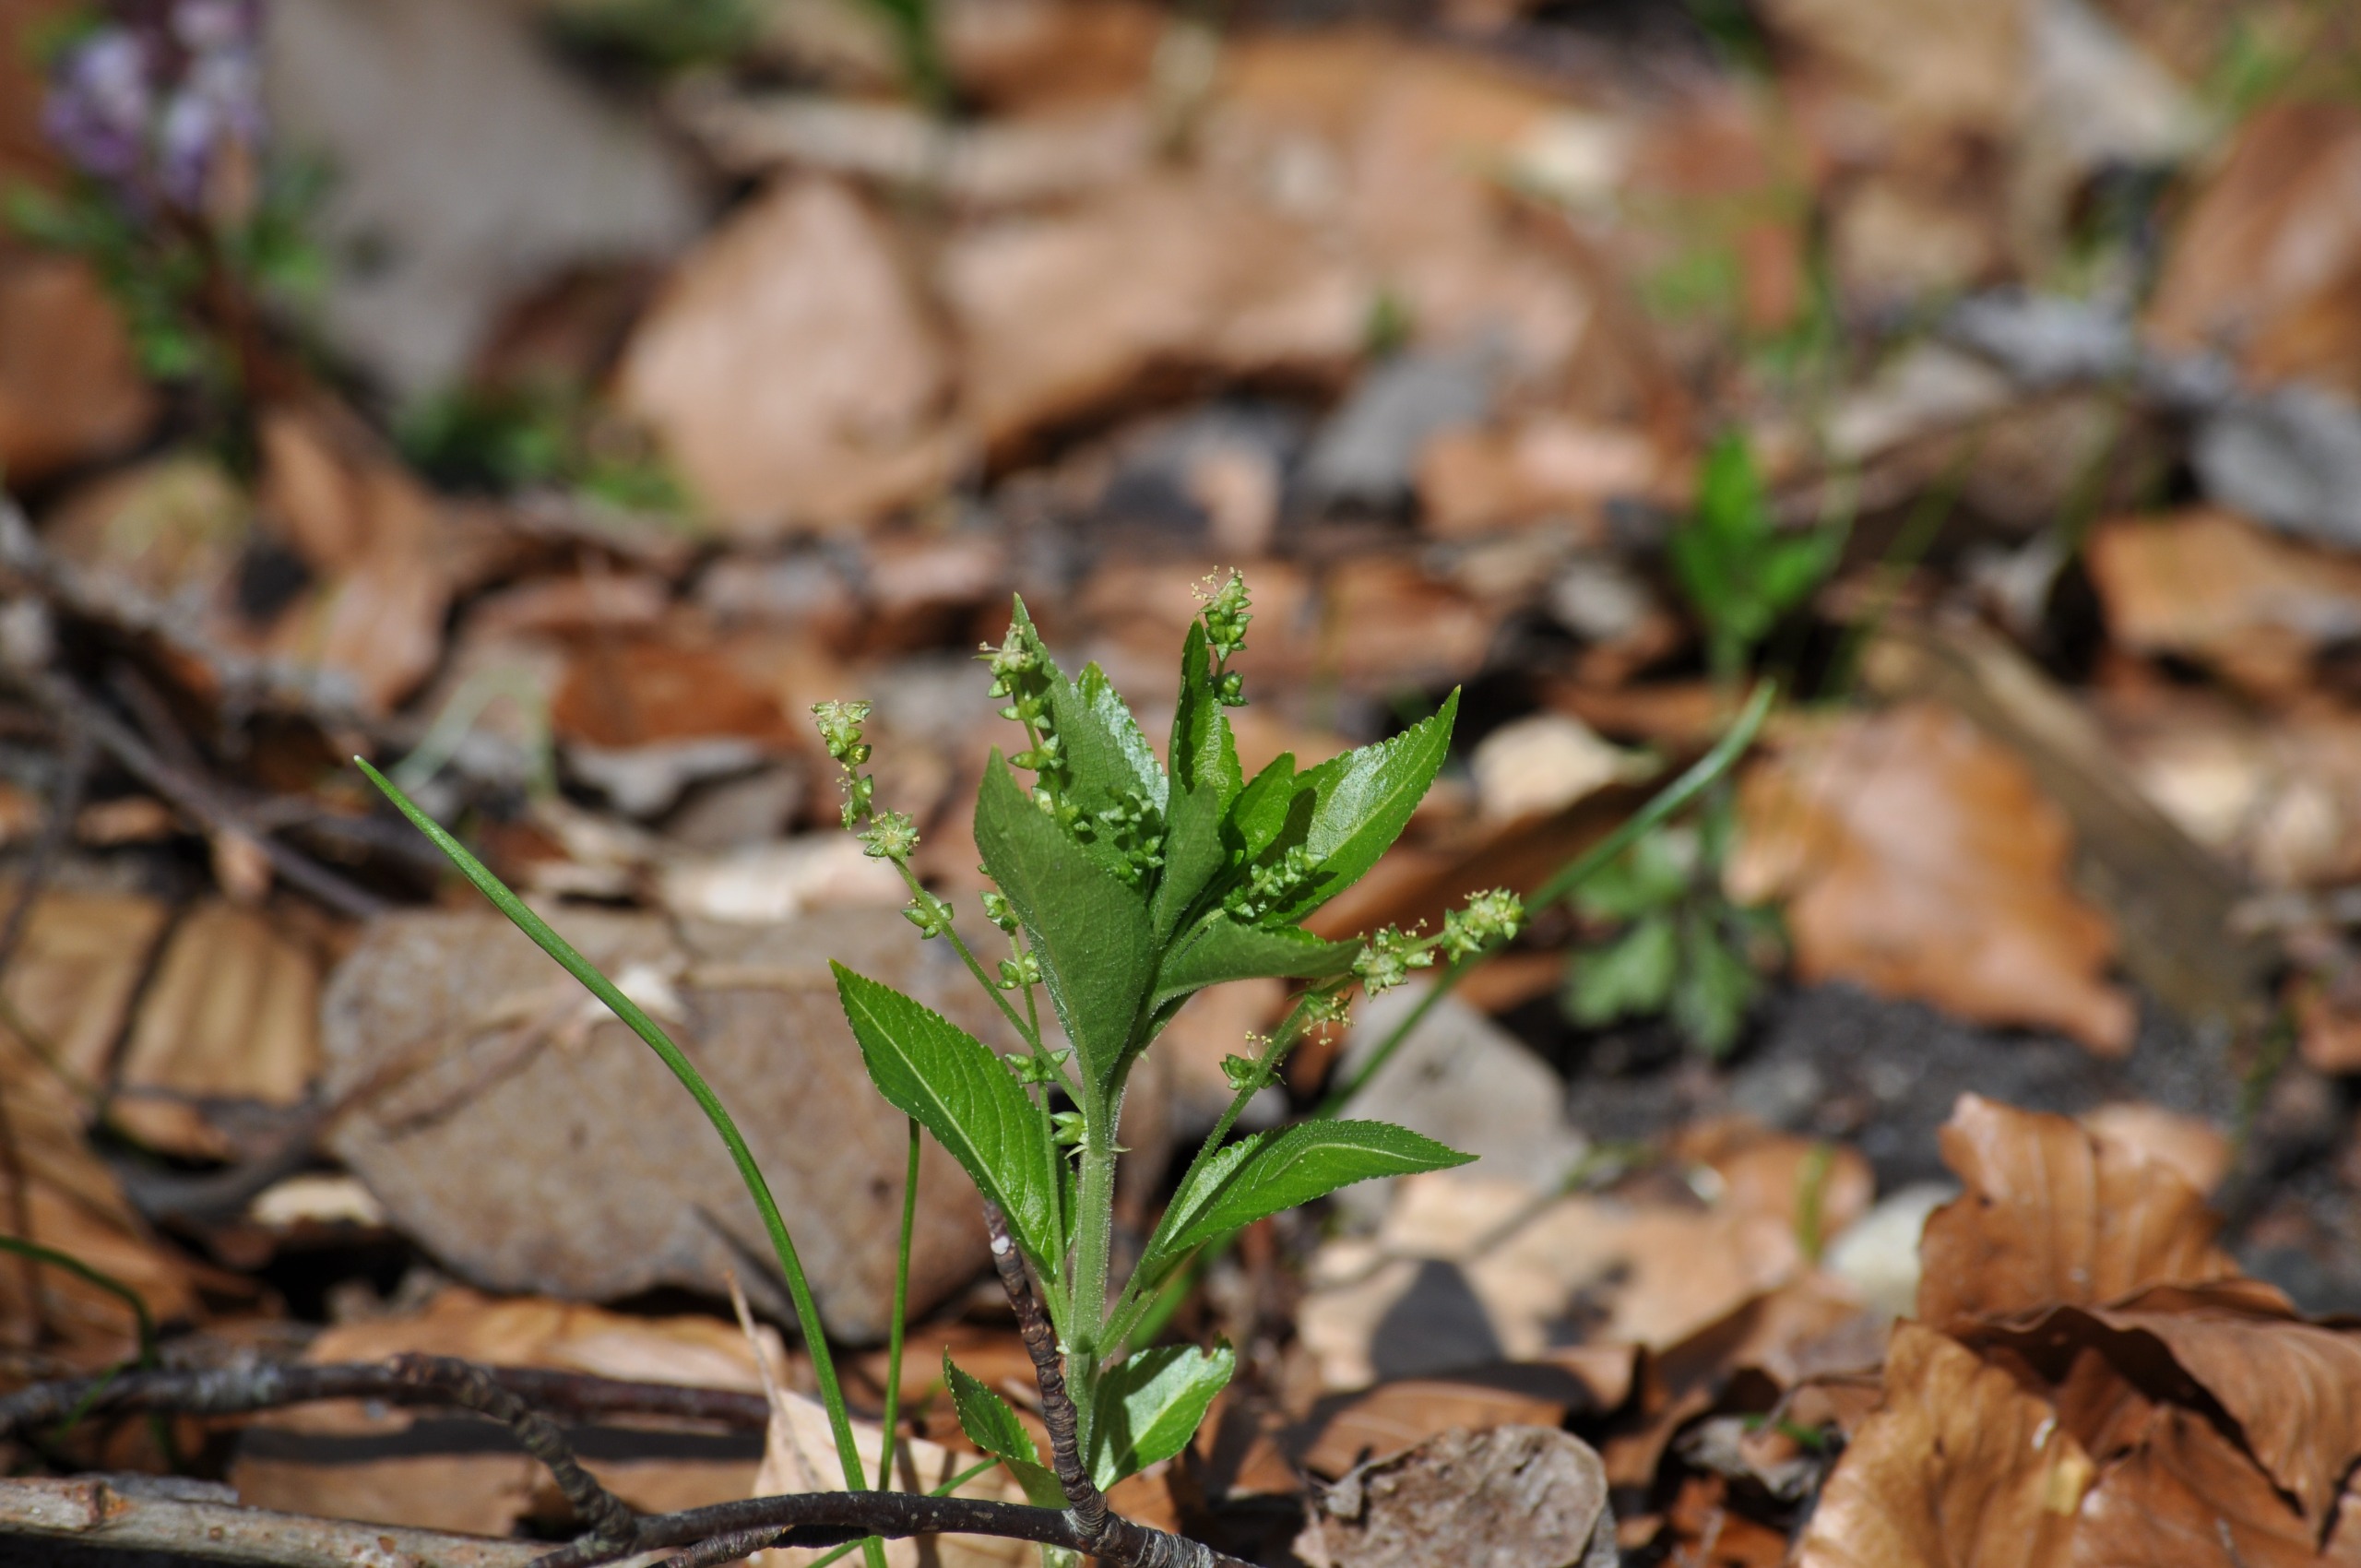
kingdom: Plantae
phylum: Tracheophyta
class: Magnoliopsida
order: Malpighiales
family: Euphorbiaceae
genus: Mercurialis
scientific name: Mercurialis perennis
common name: Almindelig bingelurt
